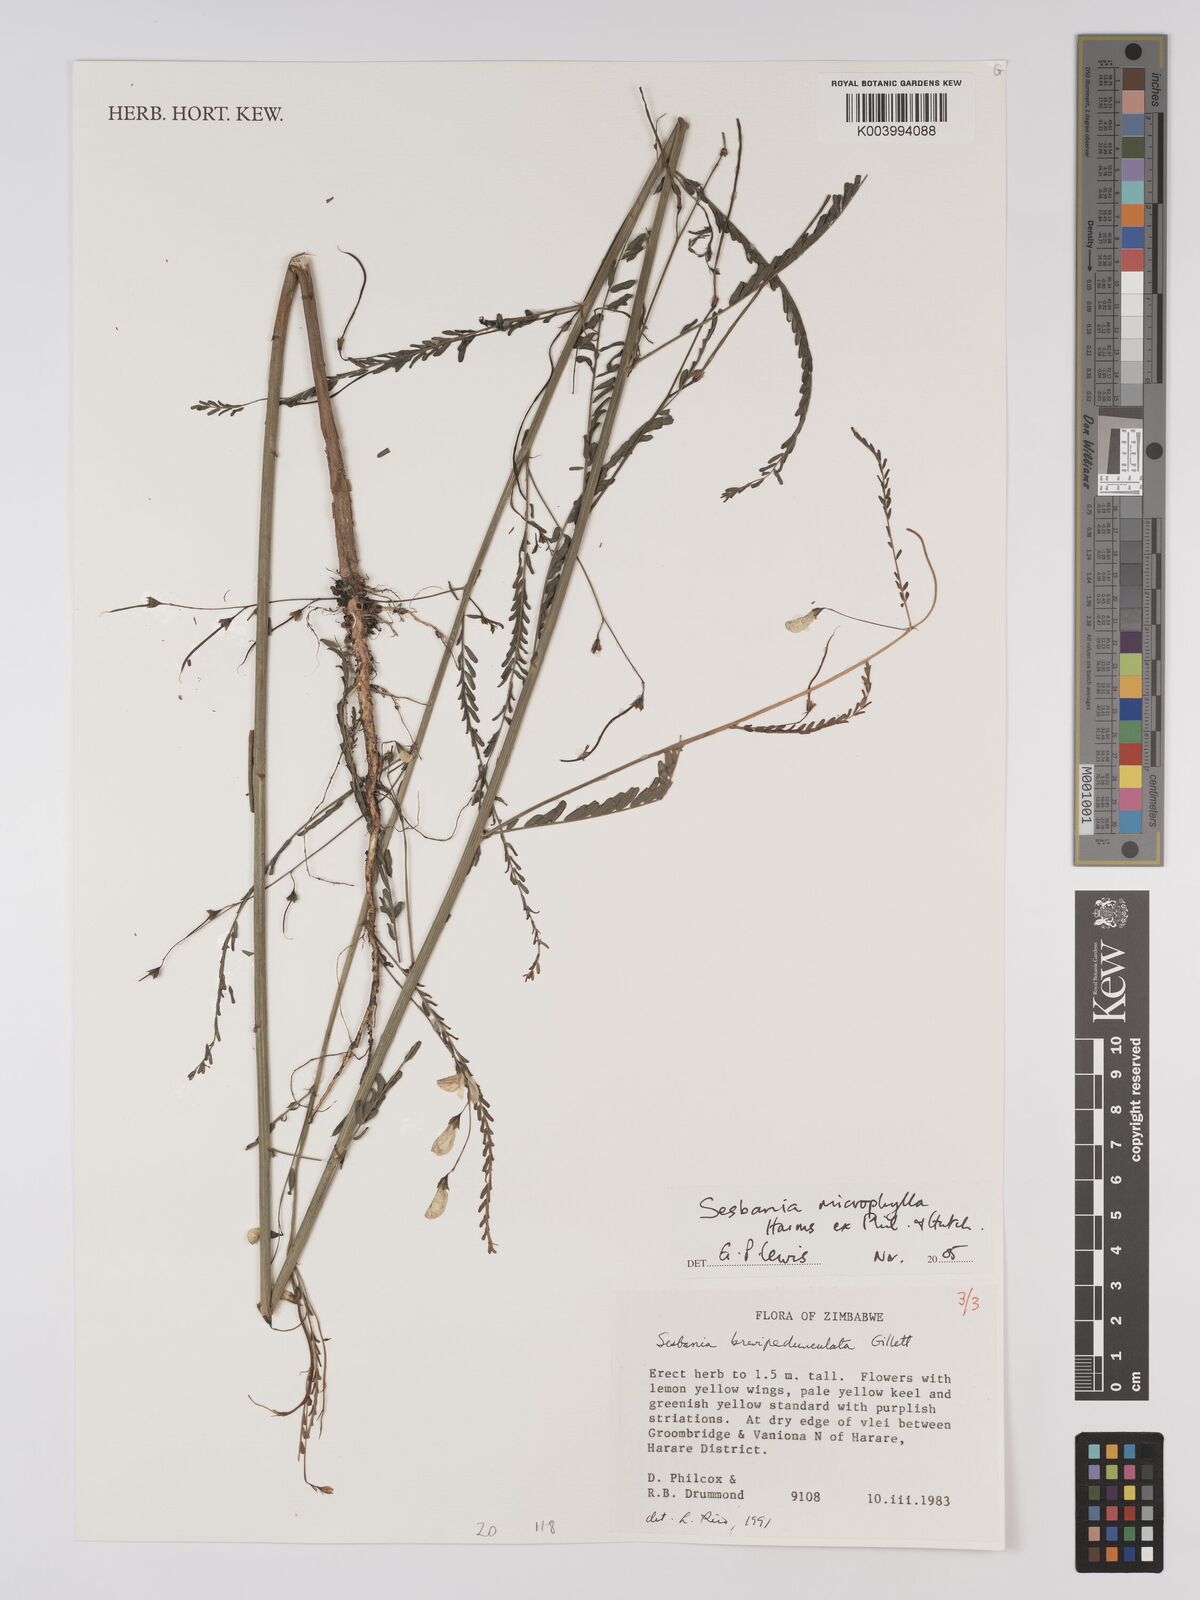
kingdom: Plantae
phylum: Tracheophyta
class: Magnoliopsida
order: Fabales
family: Fabaceae
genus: Sesbania
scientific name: Sesbania microphylla
